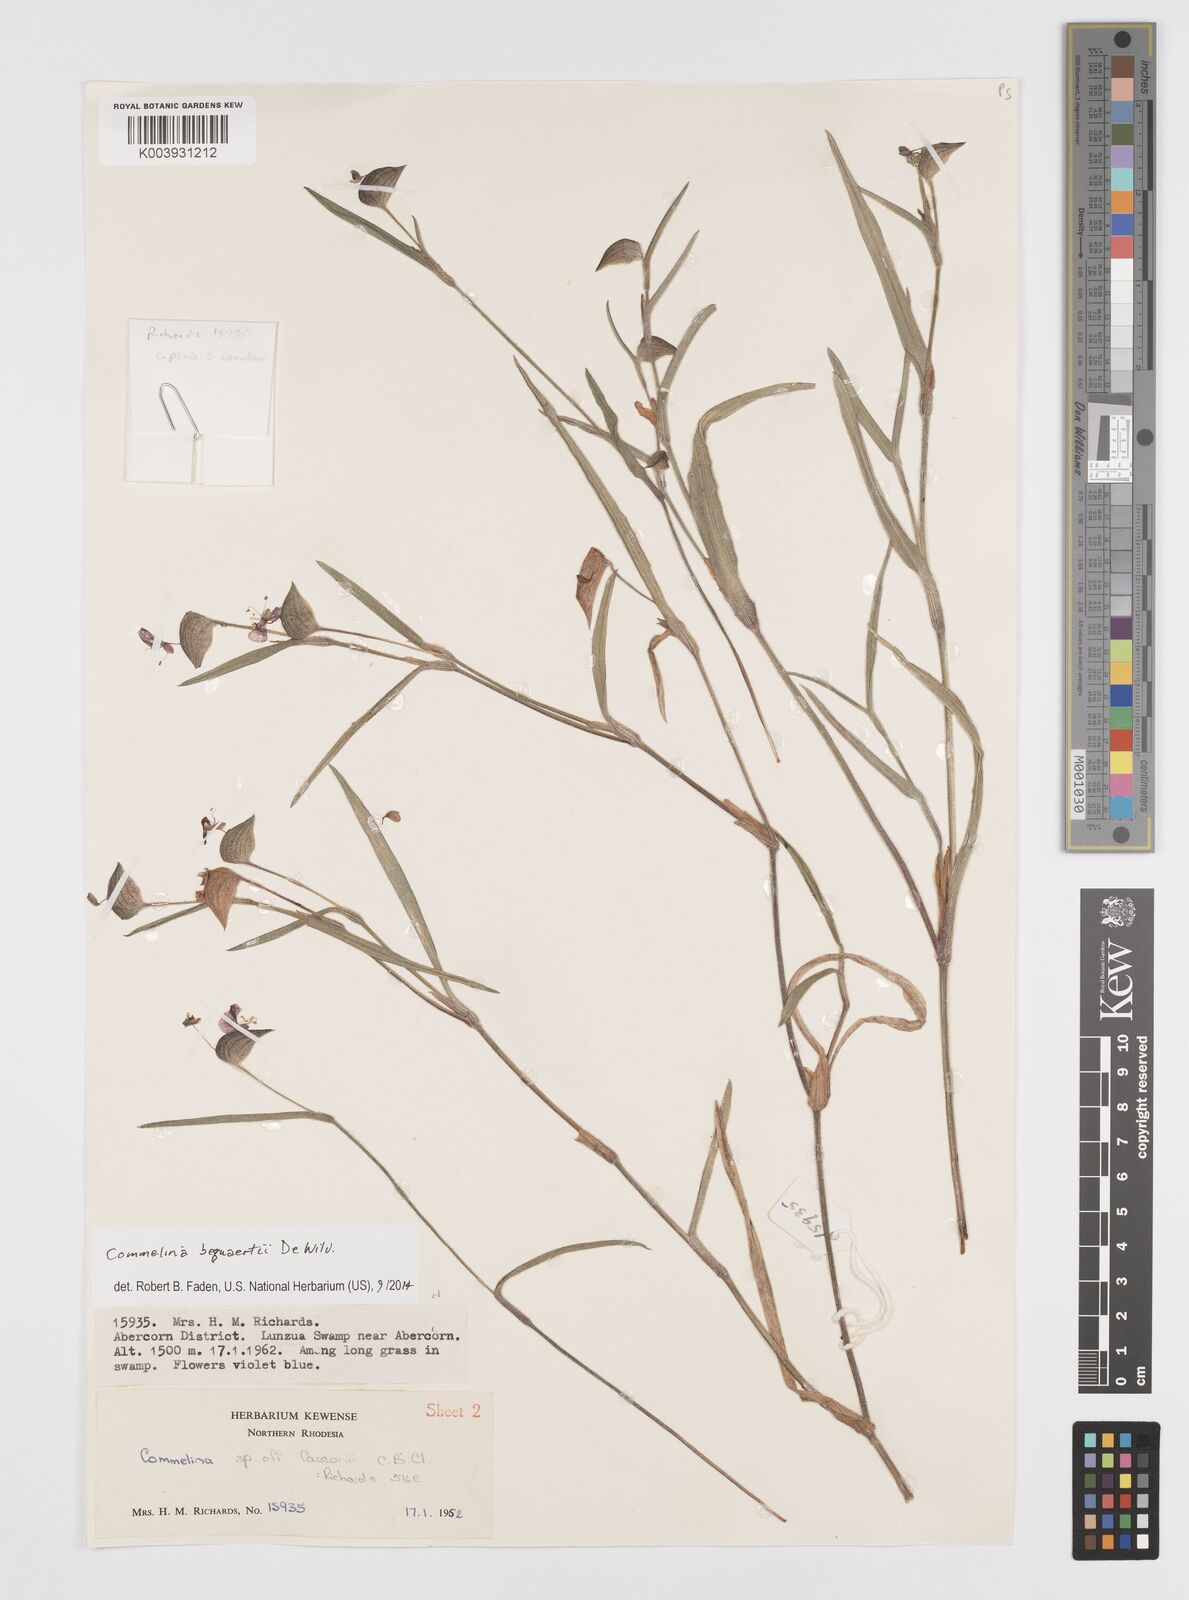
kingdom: Plantae
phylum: Tracheophyta
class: Liliopsida
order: Commelinales
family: Commelinaceae
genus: Commelina
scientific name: Commelina bequaertii
